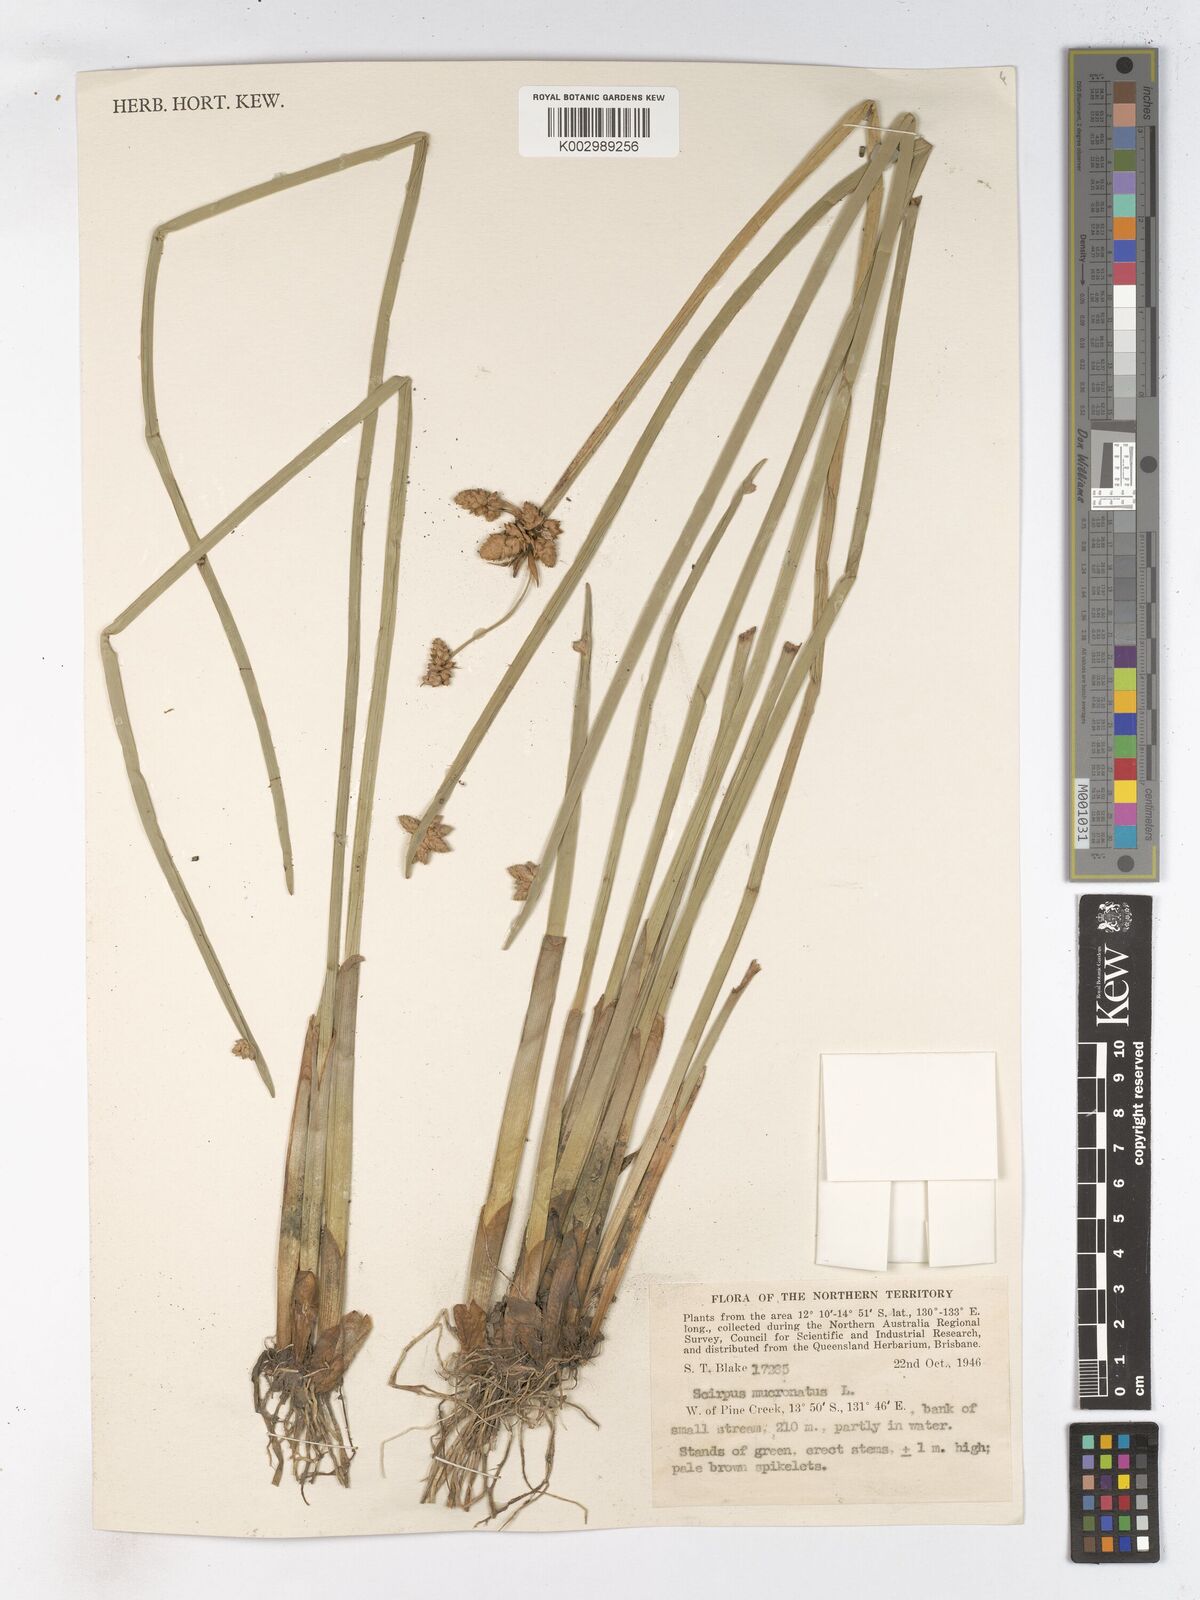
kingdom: Plantae
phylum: Tracheophyta
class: Liliopsida
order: Poales
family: Cyperaceae
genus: Schoenoplectiella
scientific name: Schoenoplectiella mucronata
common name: Bog bulrush
